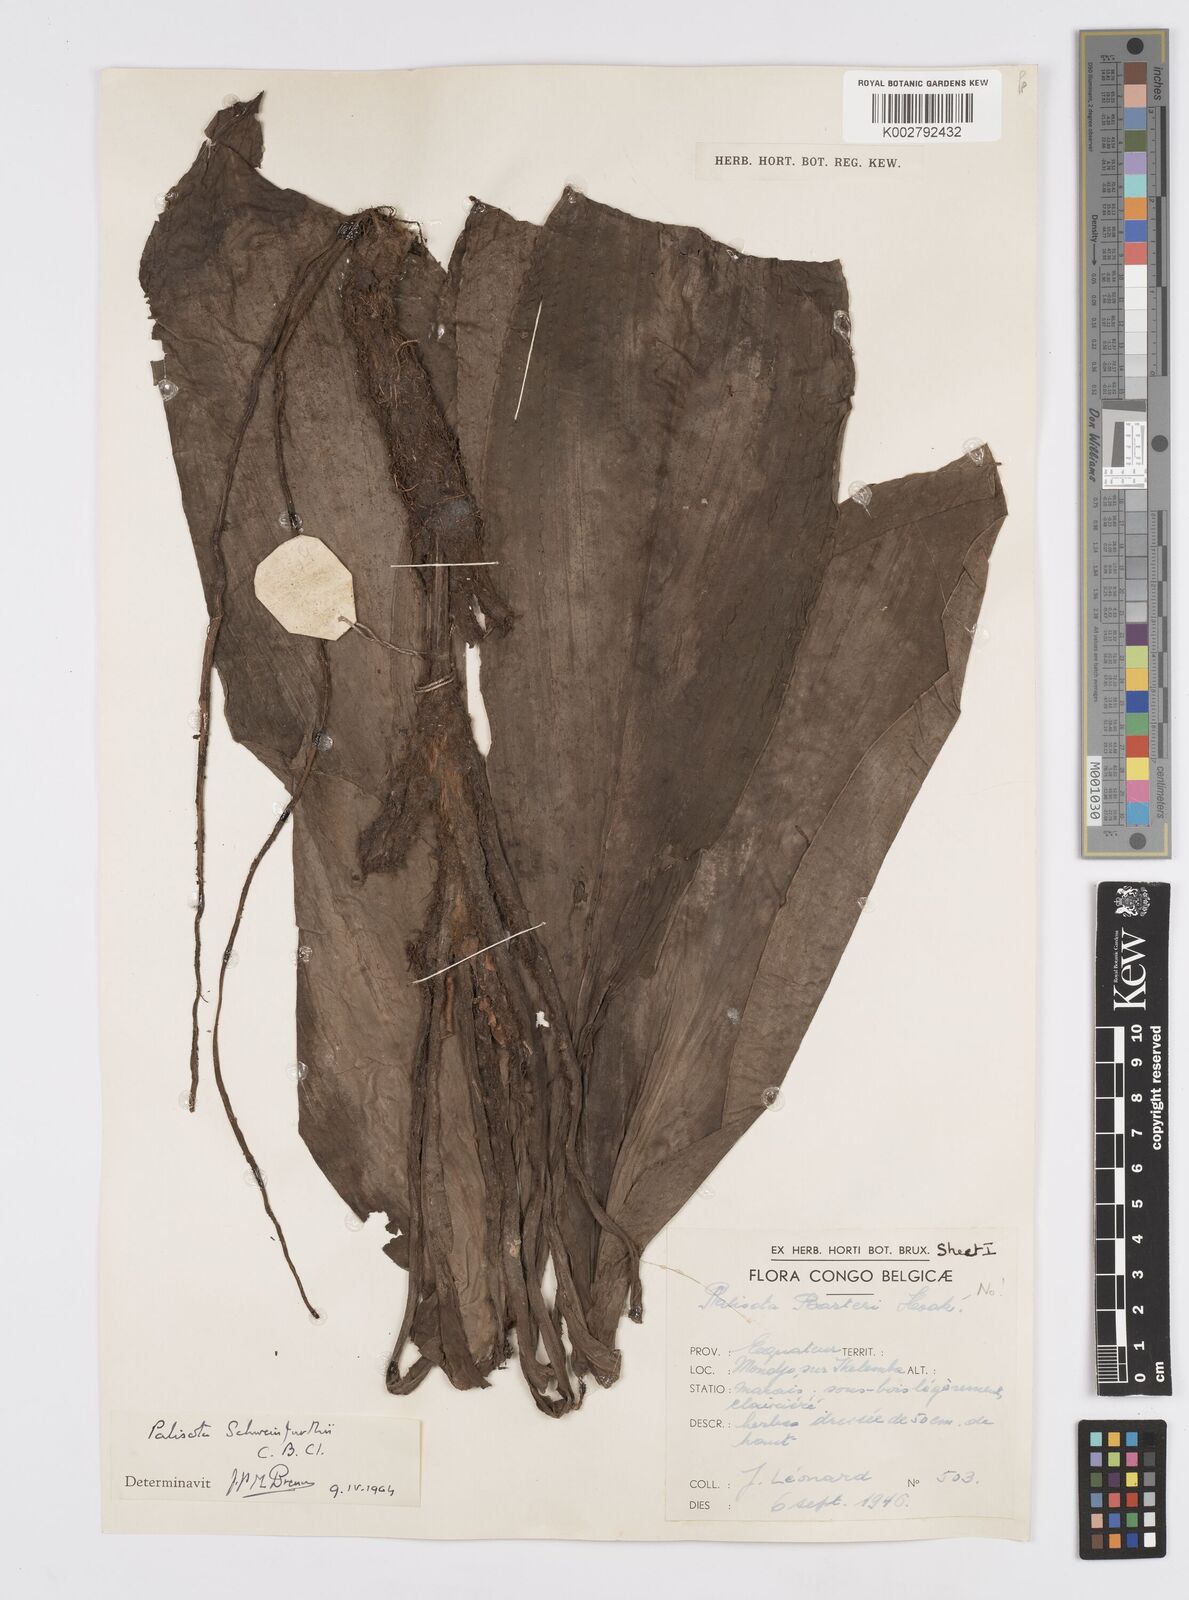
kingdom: Plantae
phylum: Tracheophyta
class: Liliopsida
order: Commelinales
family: Commelinaceae
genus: Palisota
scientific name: Palisota schweinfurthii
